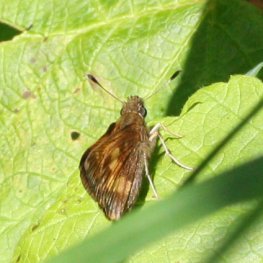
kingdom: Animalia
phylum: Arthropoda
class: Insecta
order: Lepidoptera
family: Hesperiidae
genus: Lon
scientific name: Lon hobomok
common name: Hobomok Skipper
